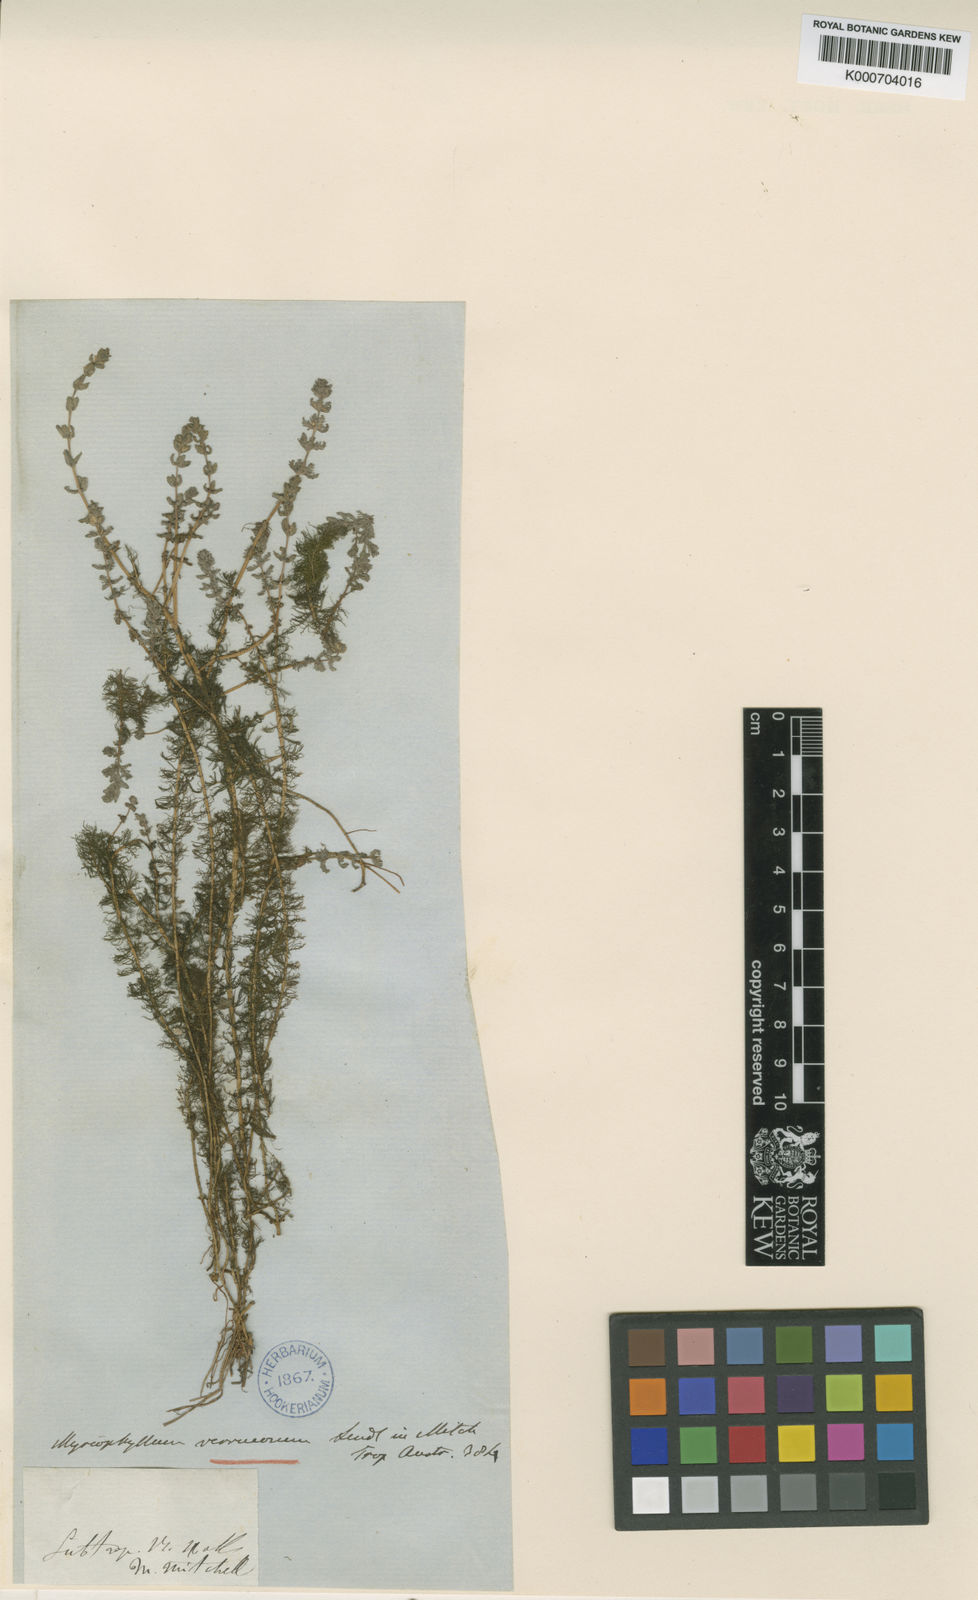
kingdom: Plantae
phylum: Tracheophyta
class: Magnoliopsida
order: Saxifragales
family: Haloragaceae
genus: Myriophyllum
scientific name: Myriophyllum verrucosum
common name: Red water-milfoil
